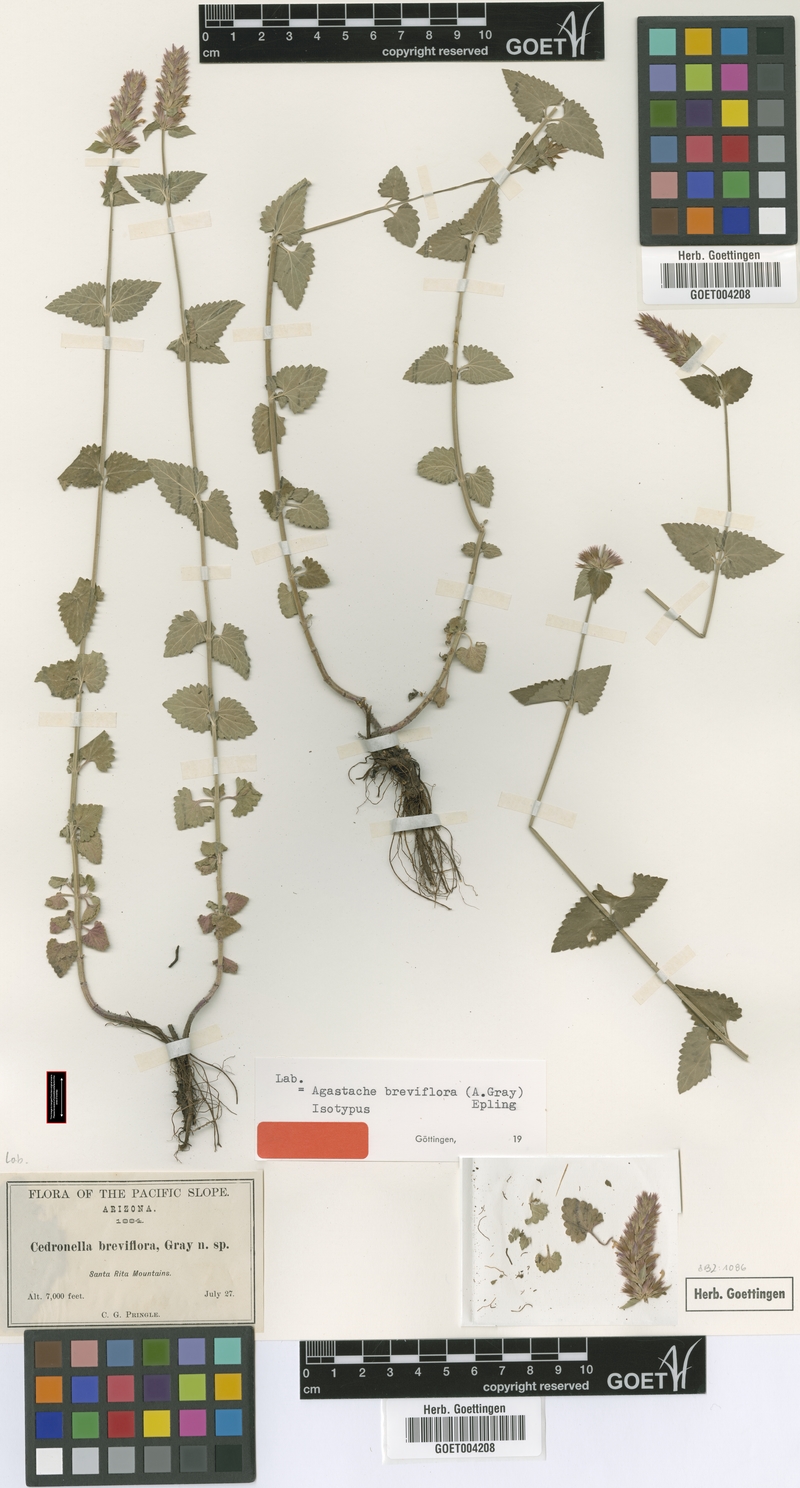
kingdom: Plantae
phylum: Tracheophyta
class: Magnoliopsida
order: Lamiales
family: Lamiaceae
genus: Agastache
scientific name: Agastache breviflora
